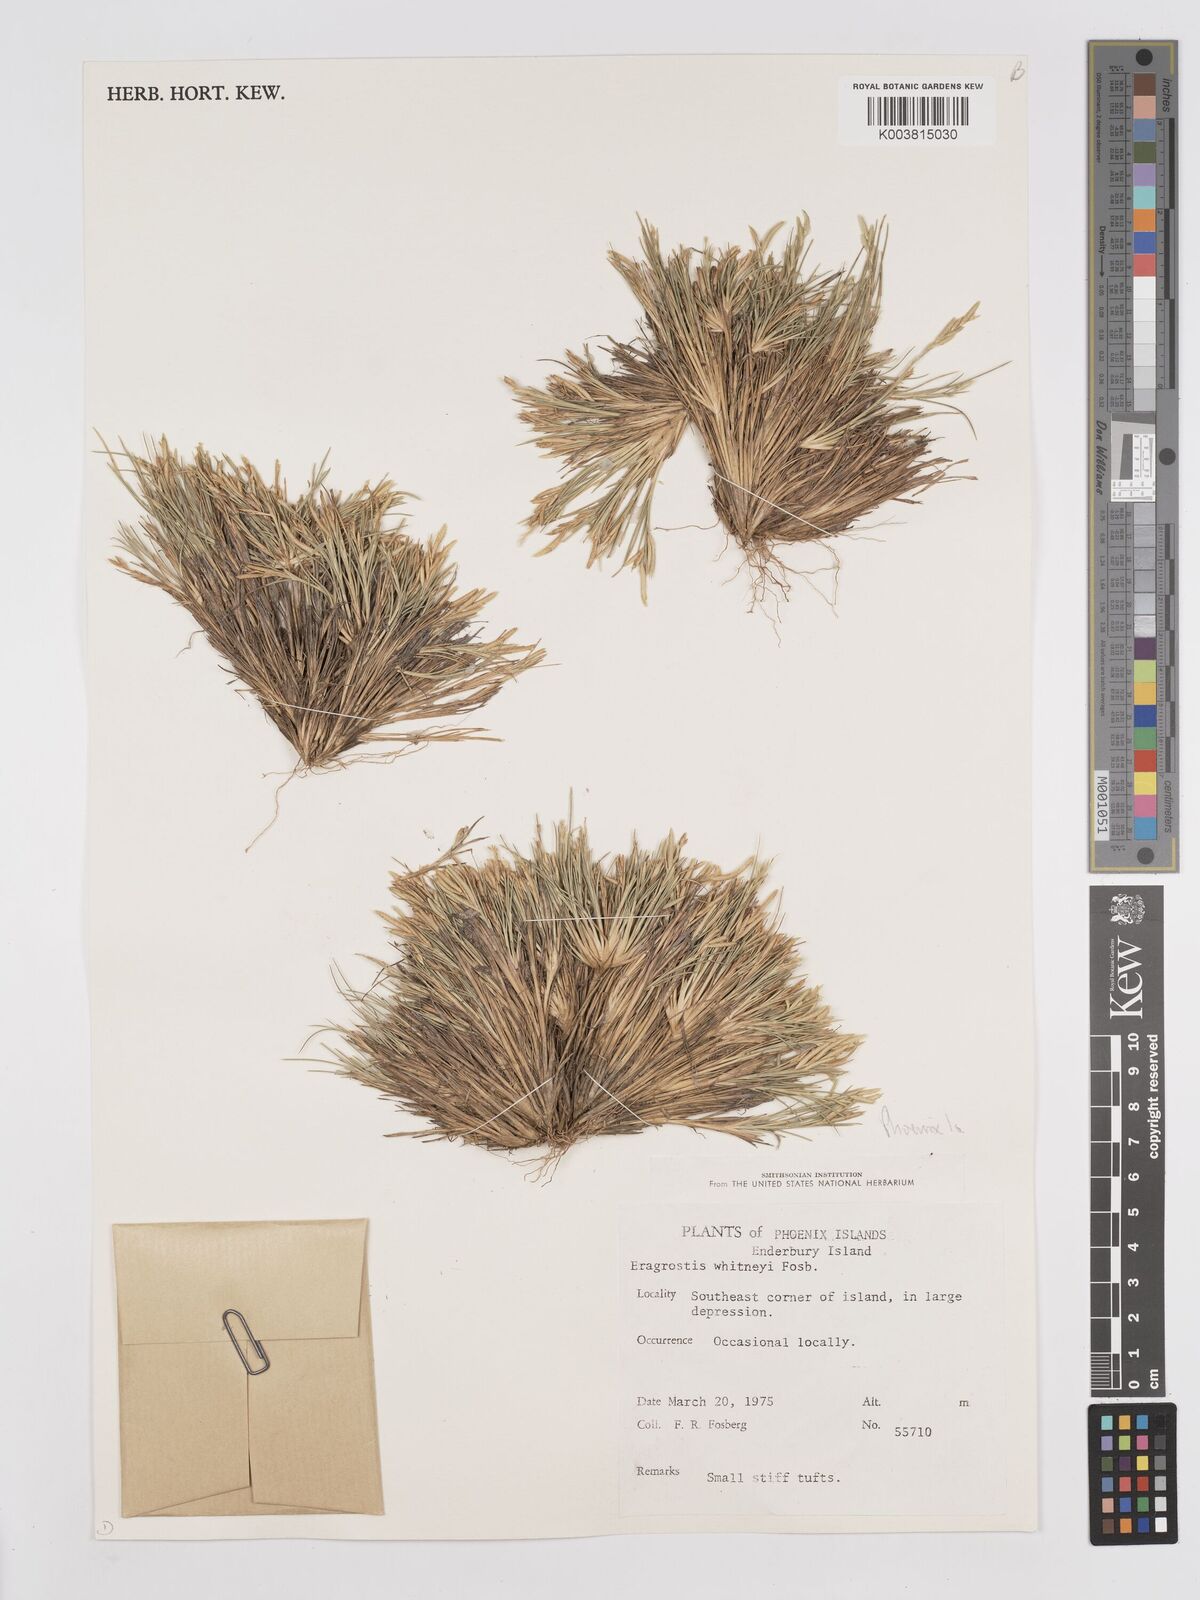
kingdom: Plantae
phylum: Tracheophyta
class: Liliopsida
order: Poales
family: Poaceae
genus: Eragrostis
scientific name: Eragrostis paupera
